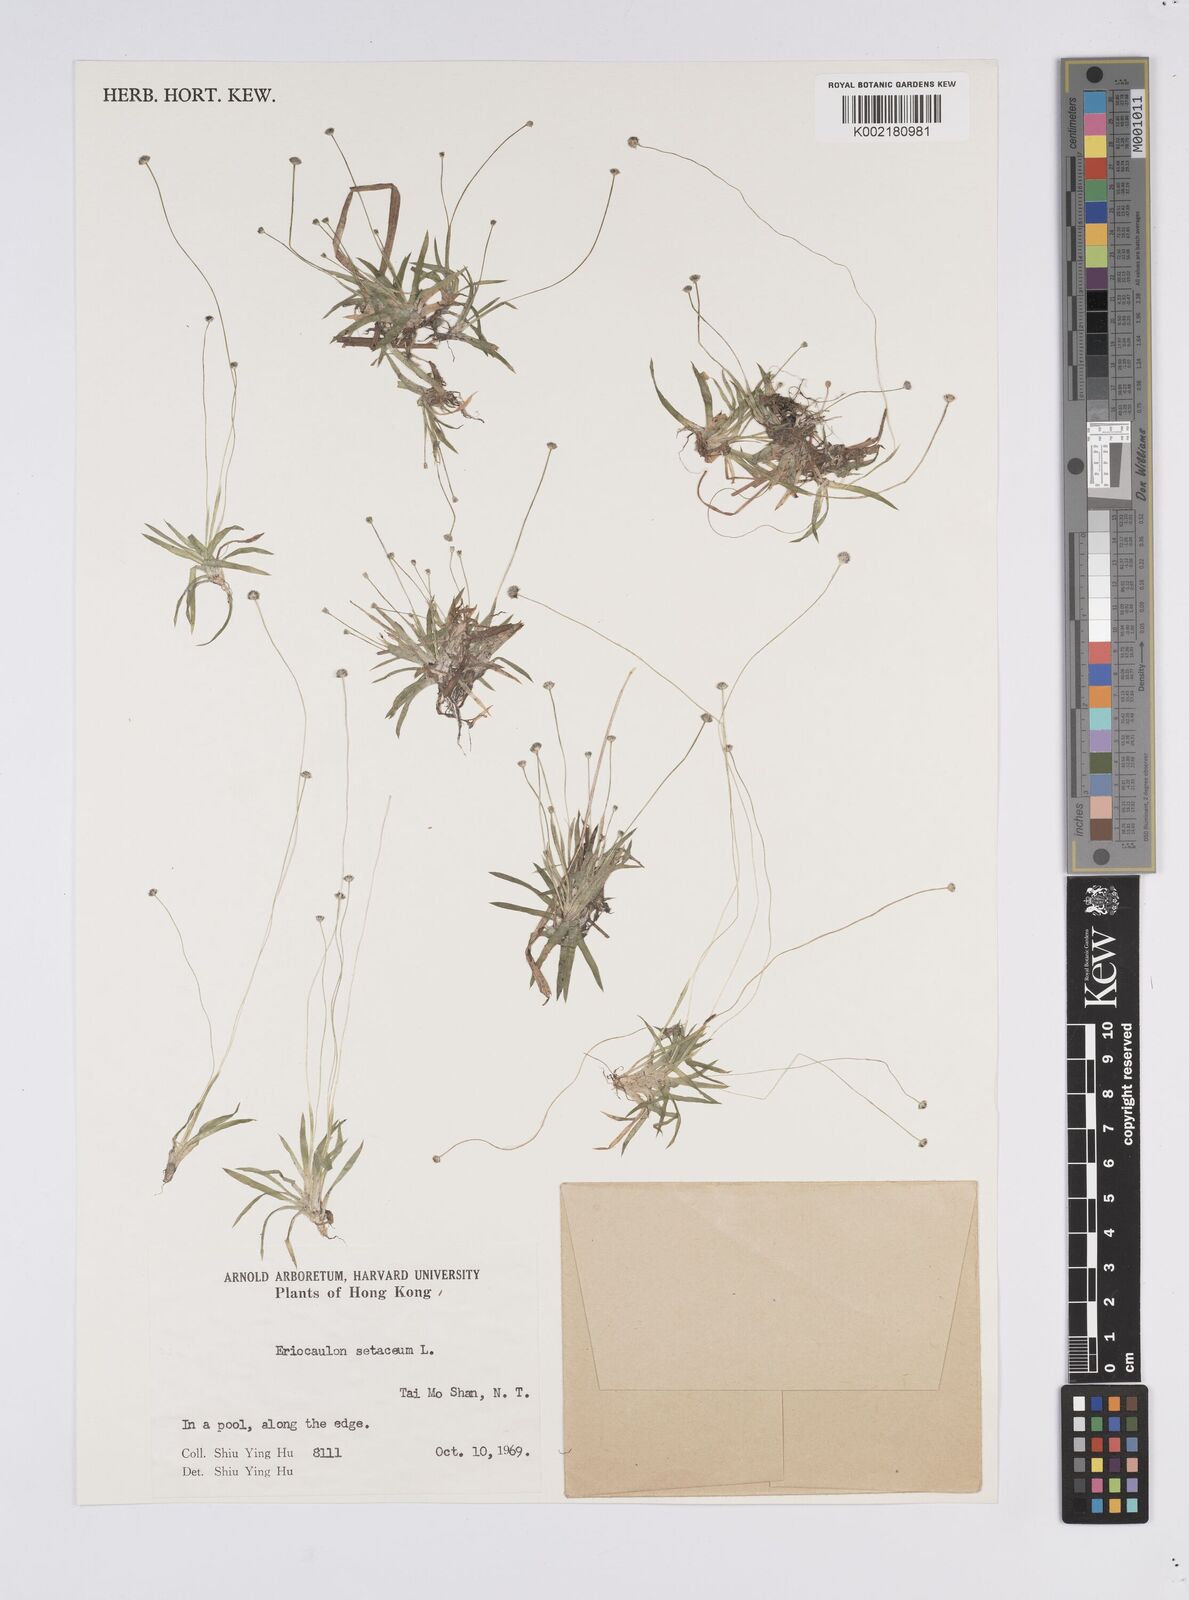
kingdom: Plantae
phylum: Tracheophyta
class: Liliopsida
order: Poales
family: Eriocaulaceae
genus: Eriocaulon
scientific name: Eriocaulon setaceum
